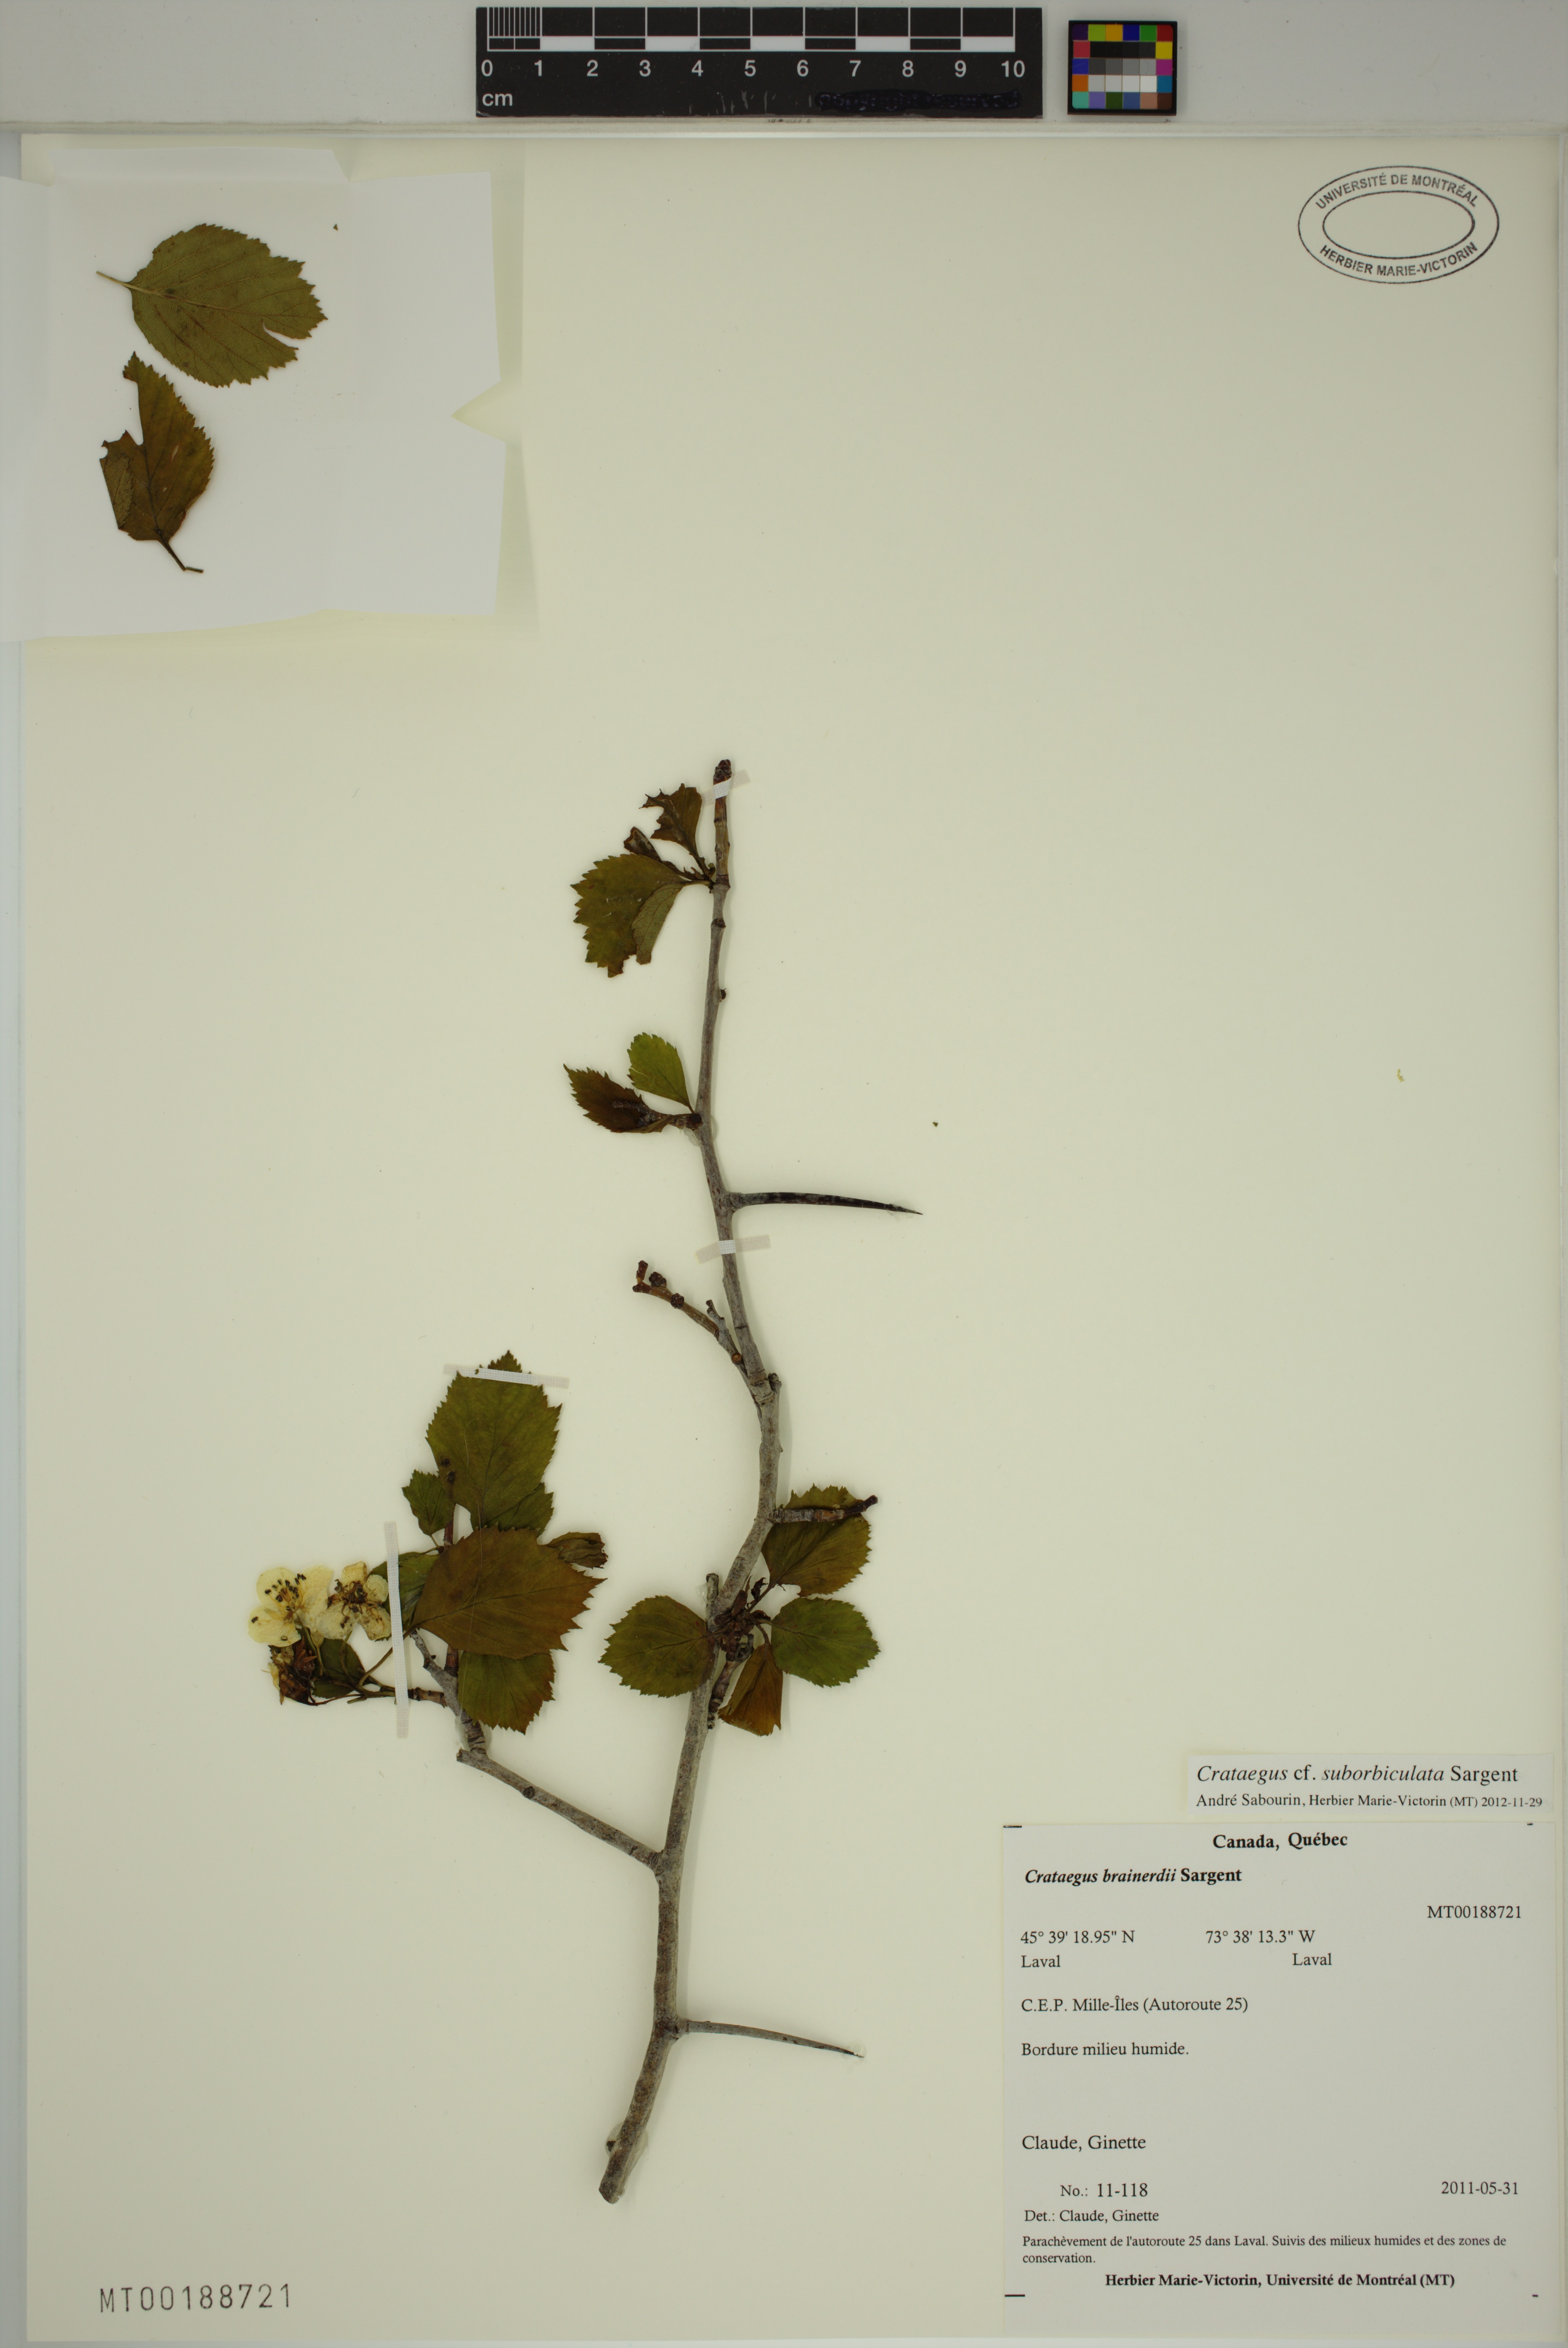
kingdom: Plantae
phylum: Tracheophyta
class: Magnoliopsida
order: Rosales
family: Rosaceae
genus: Crataegus
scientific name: Crataegus suborbiculata
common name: Caughnawaga hawthorn
